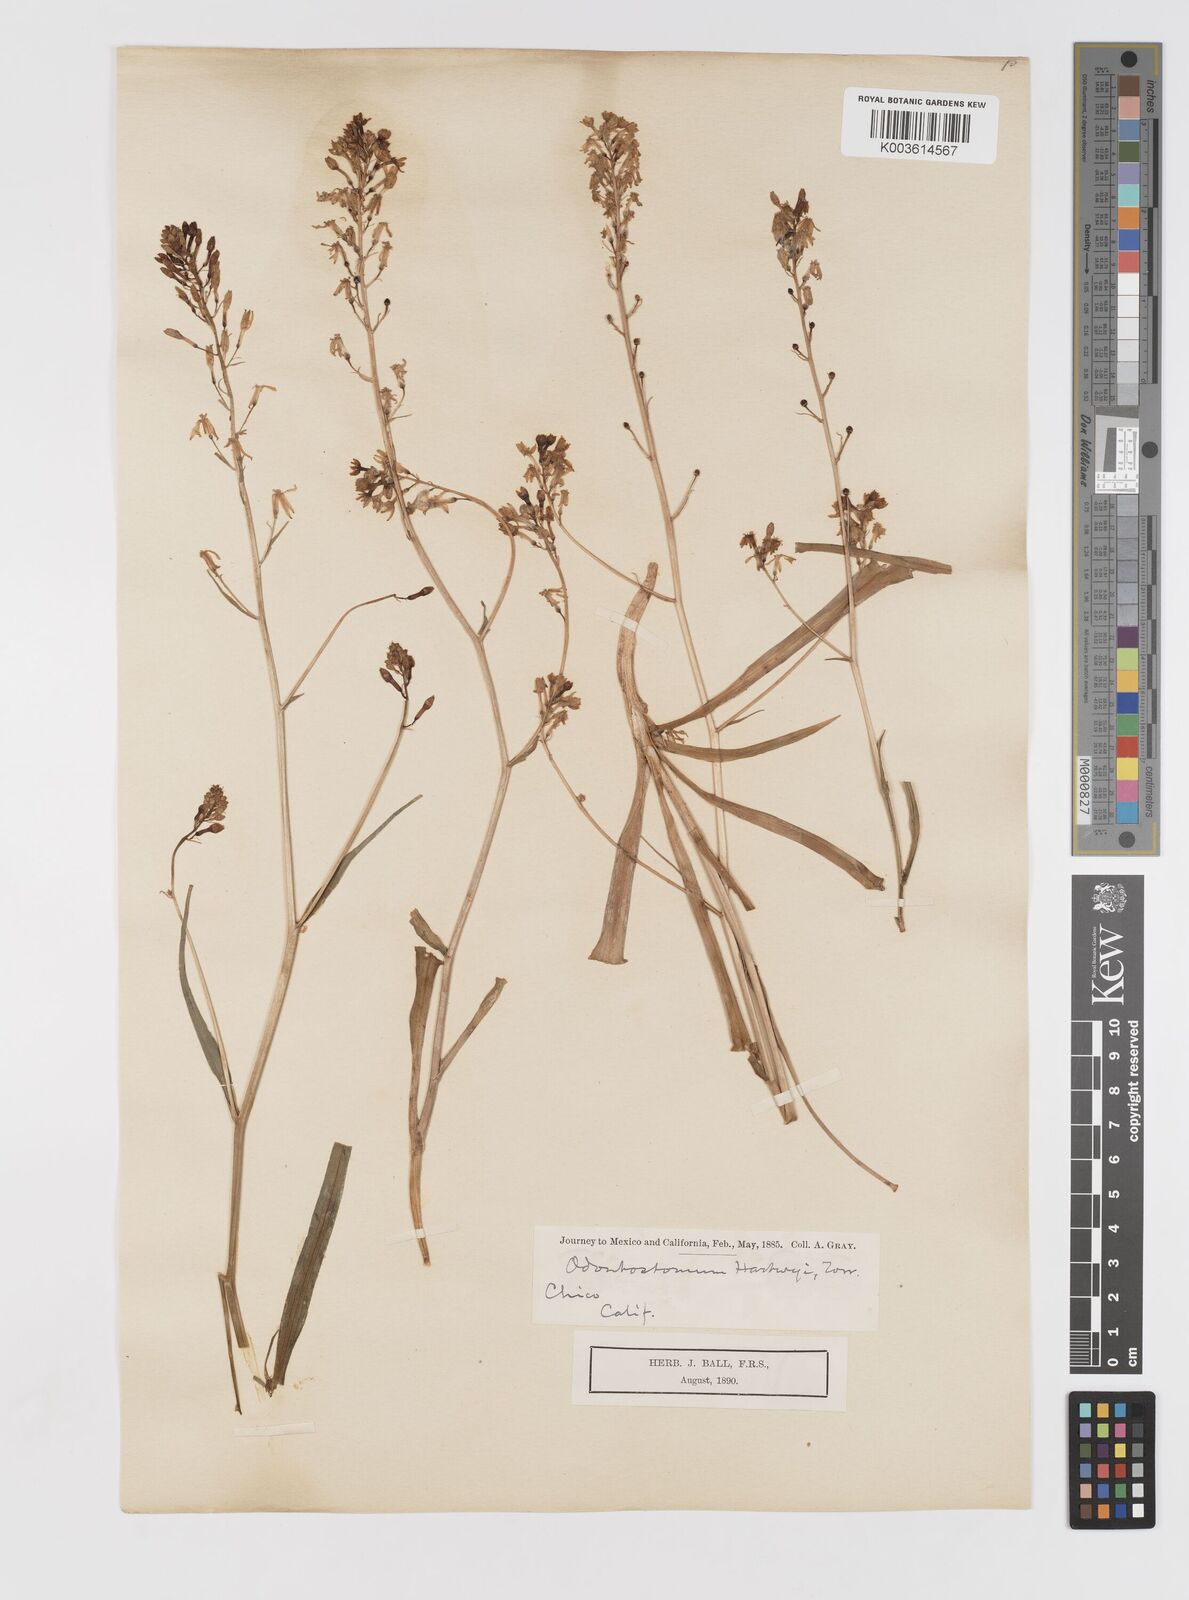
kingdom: Plantae
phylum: Tracheophyta
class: Liliopsida
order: Asparagales
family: Tecophilaeaceae
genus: Odontostomum
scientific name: Odontostomum hartwegii
